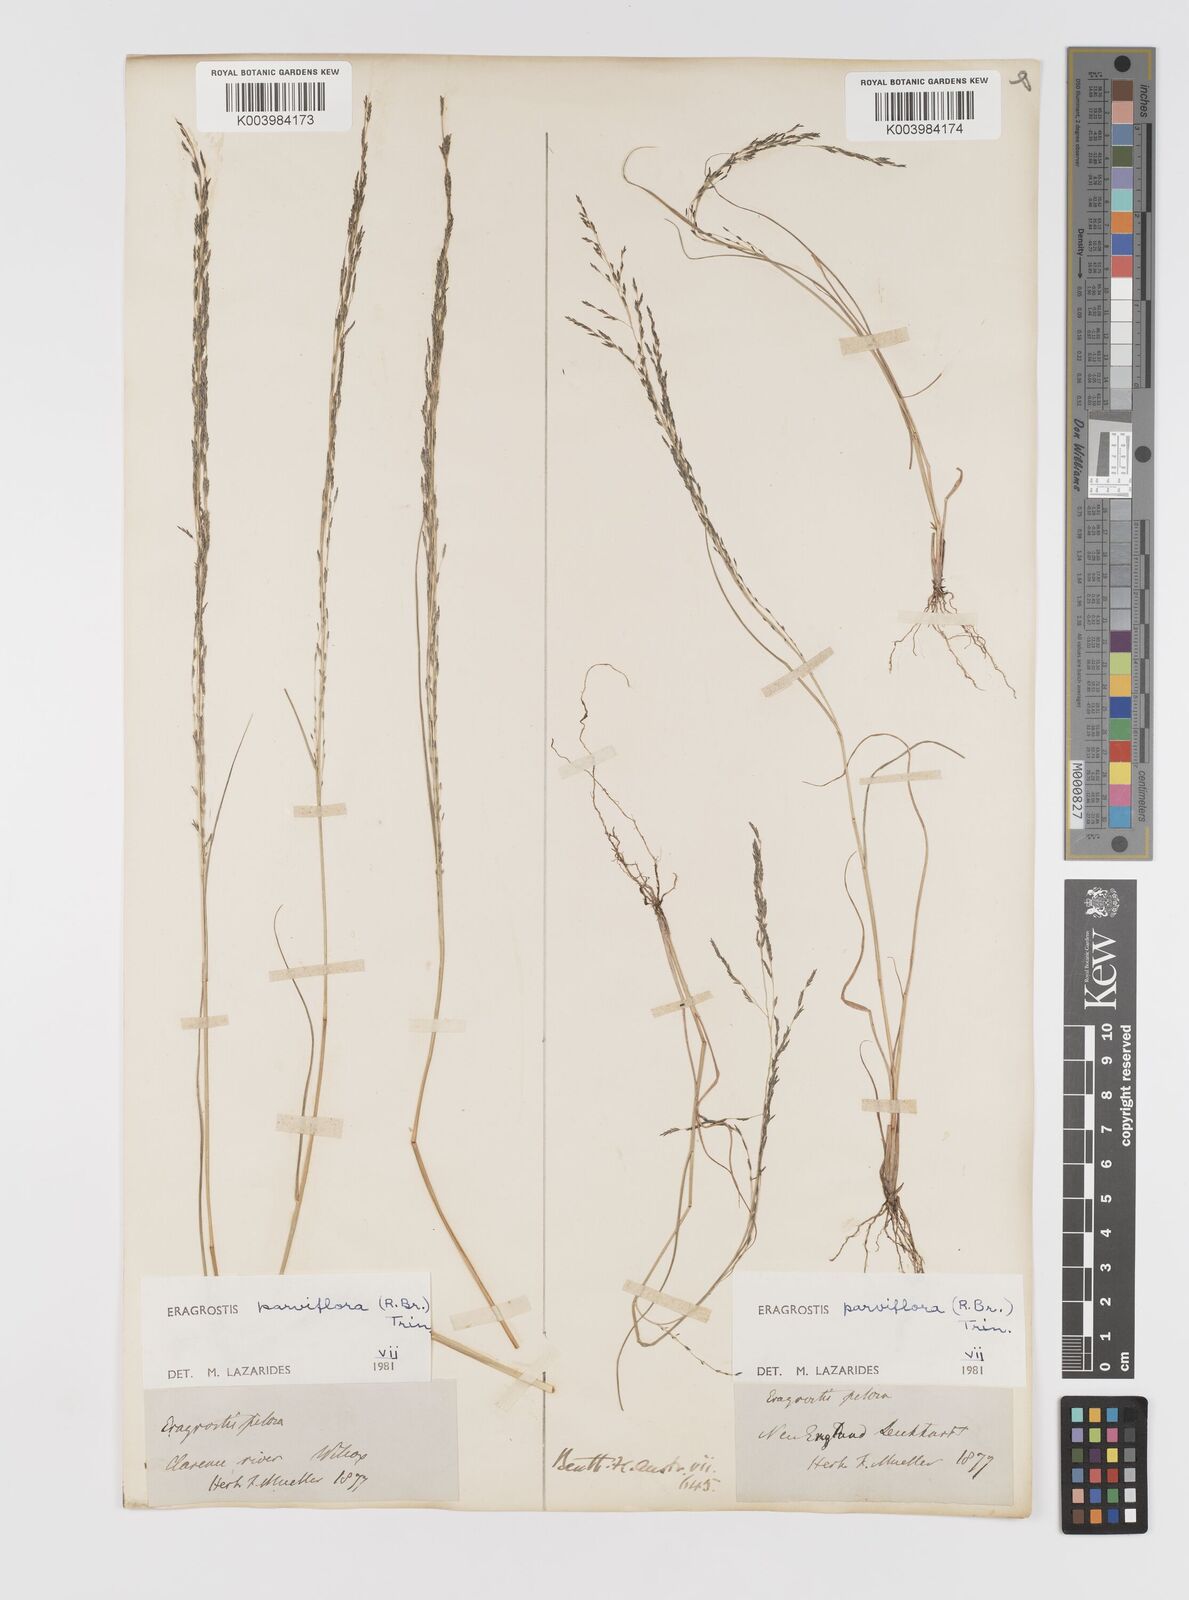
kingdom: Plantae
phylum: Tracheophyta
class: Liliopsida
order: Poales
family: Poaceae
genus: Eragrostis
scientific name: Eragrostis parviflora
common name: Weeping love-grass
